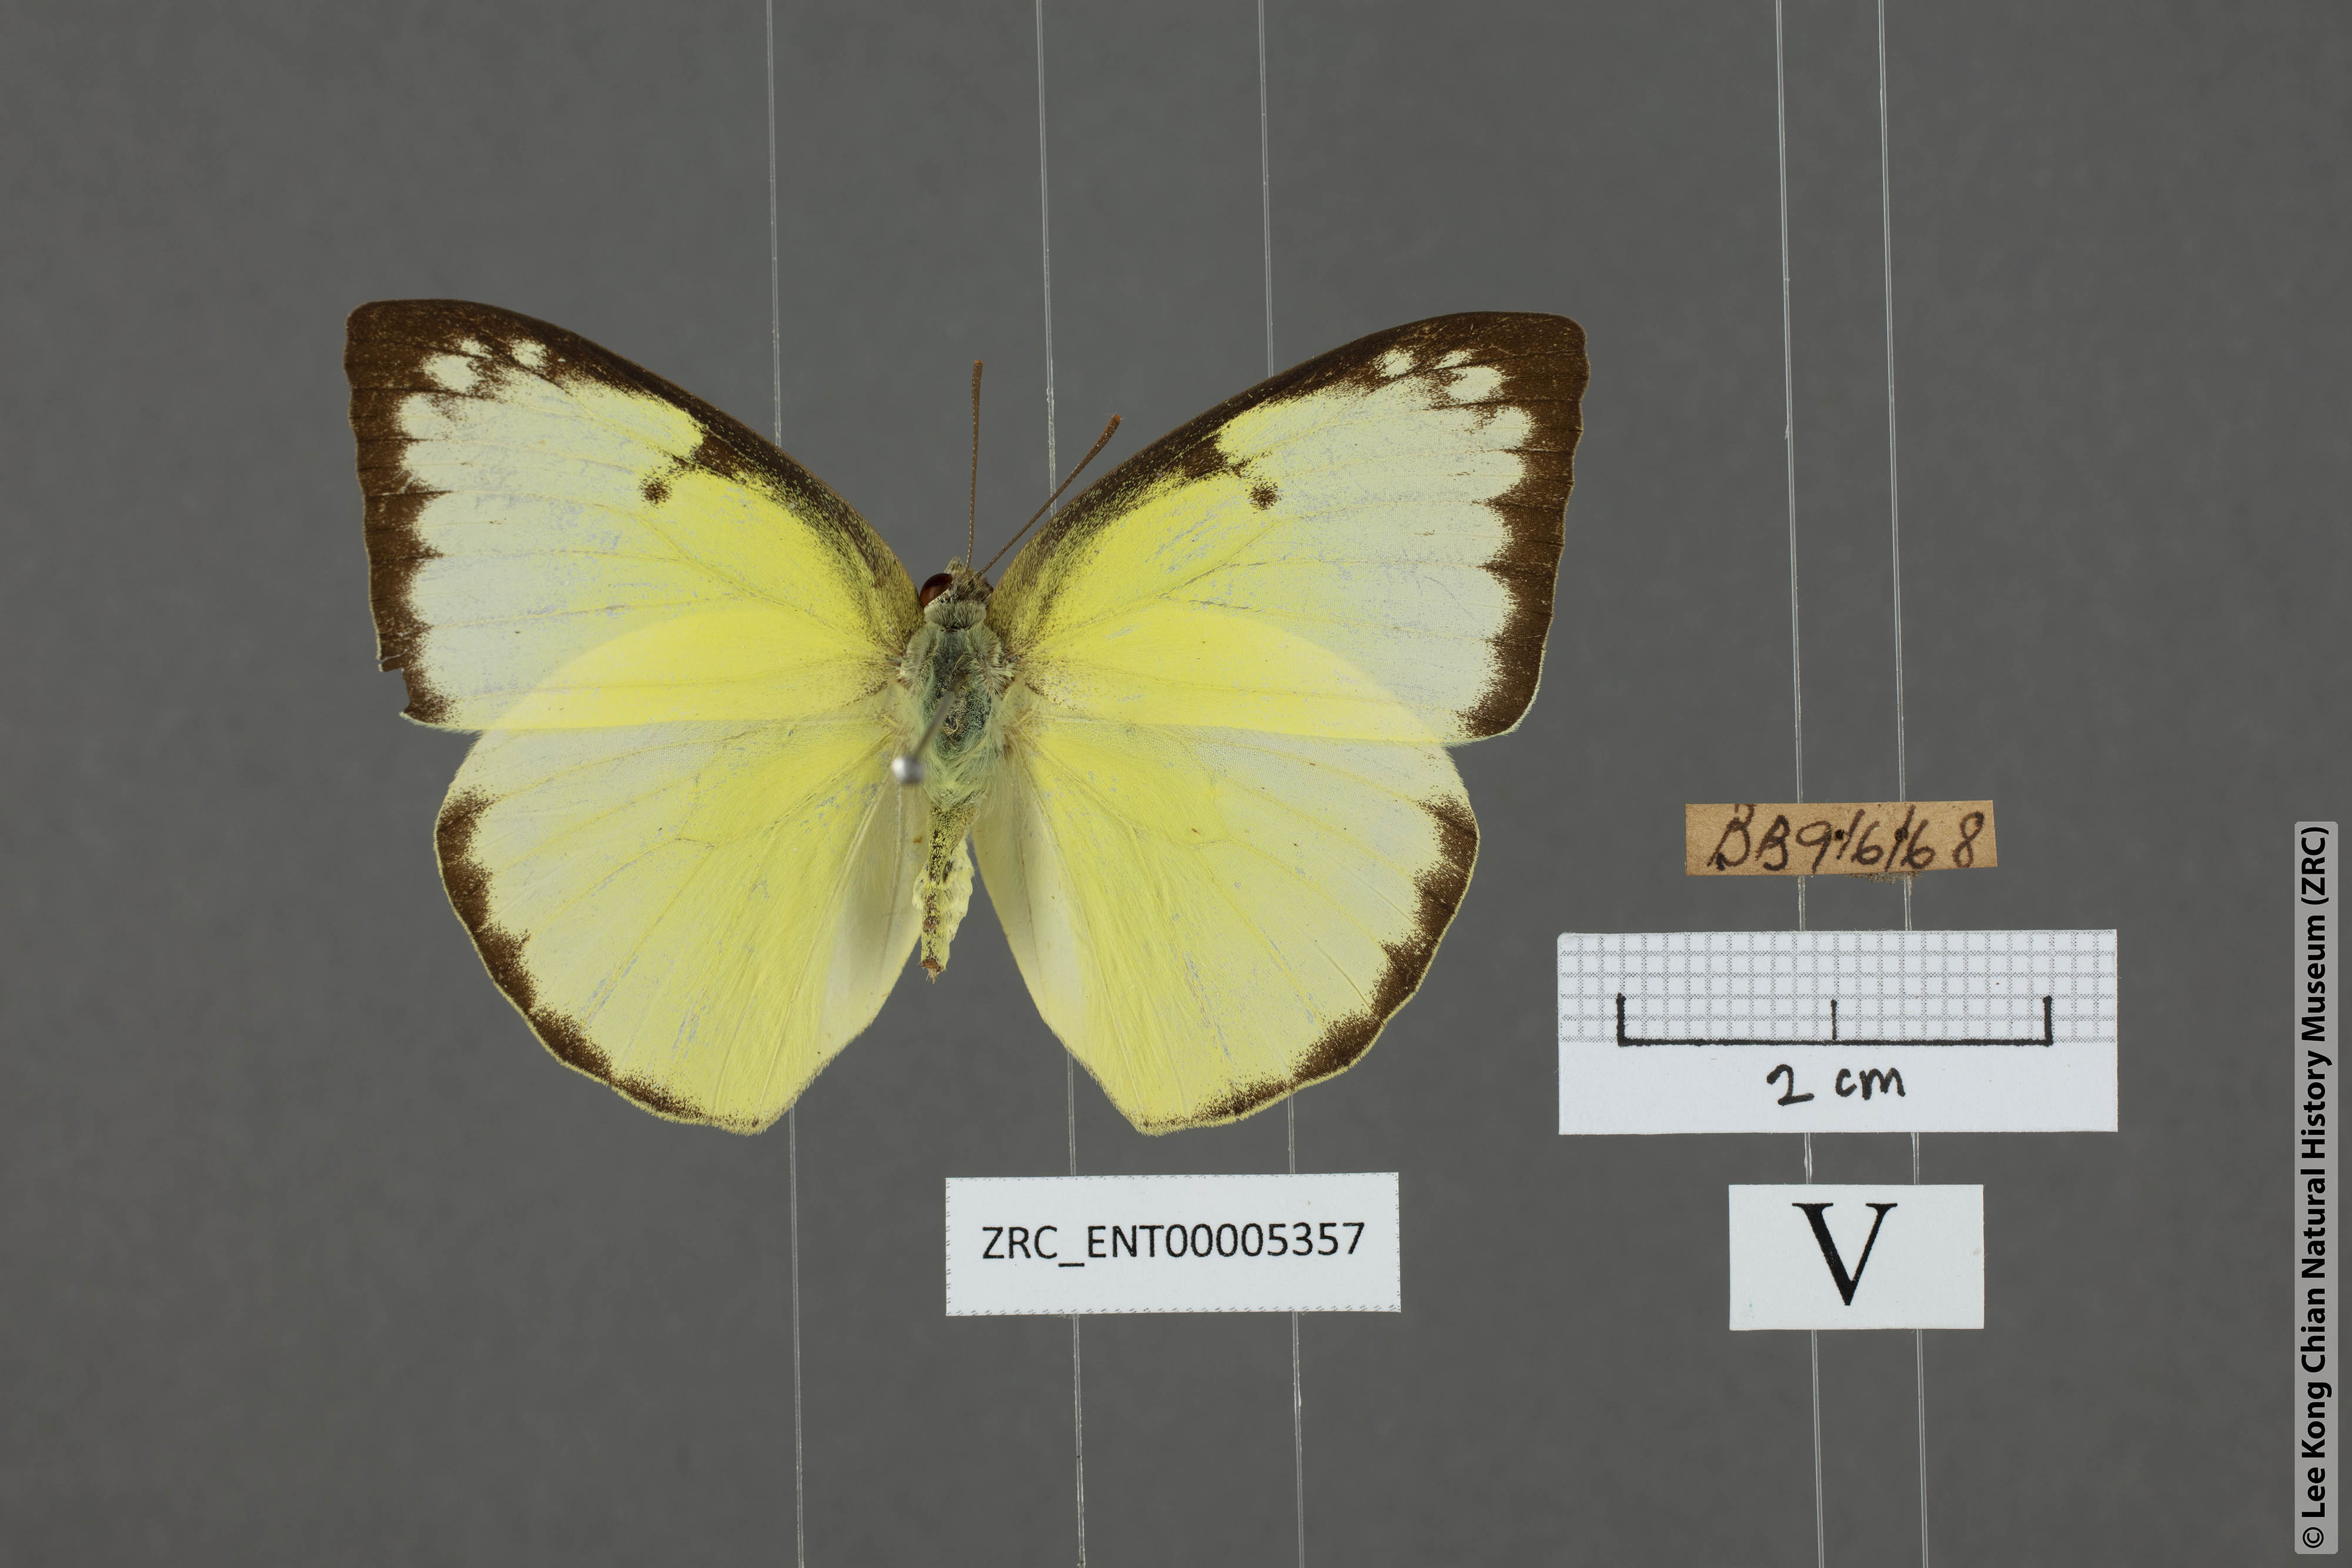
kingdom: Animalia
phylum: Arthropoda
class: Insecta
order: Lepidoptera
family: Pieridae
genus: Catopsilia
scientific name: Catopsilia pomona
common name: Common emigrant
